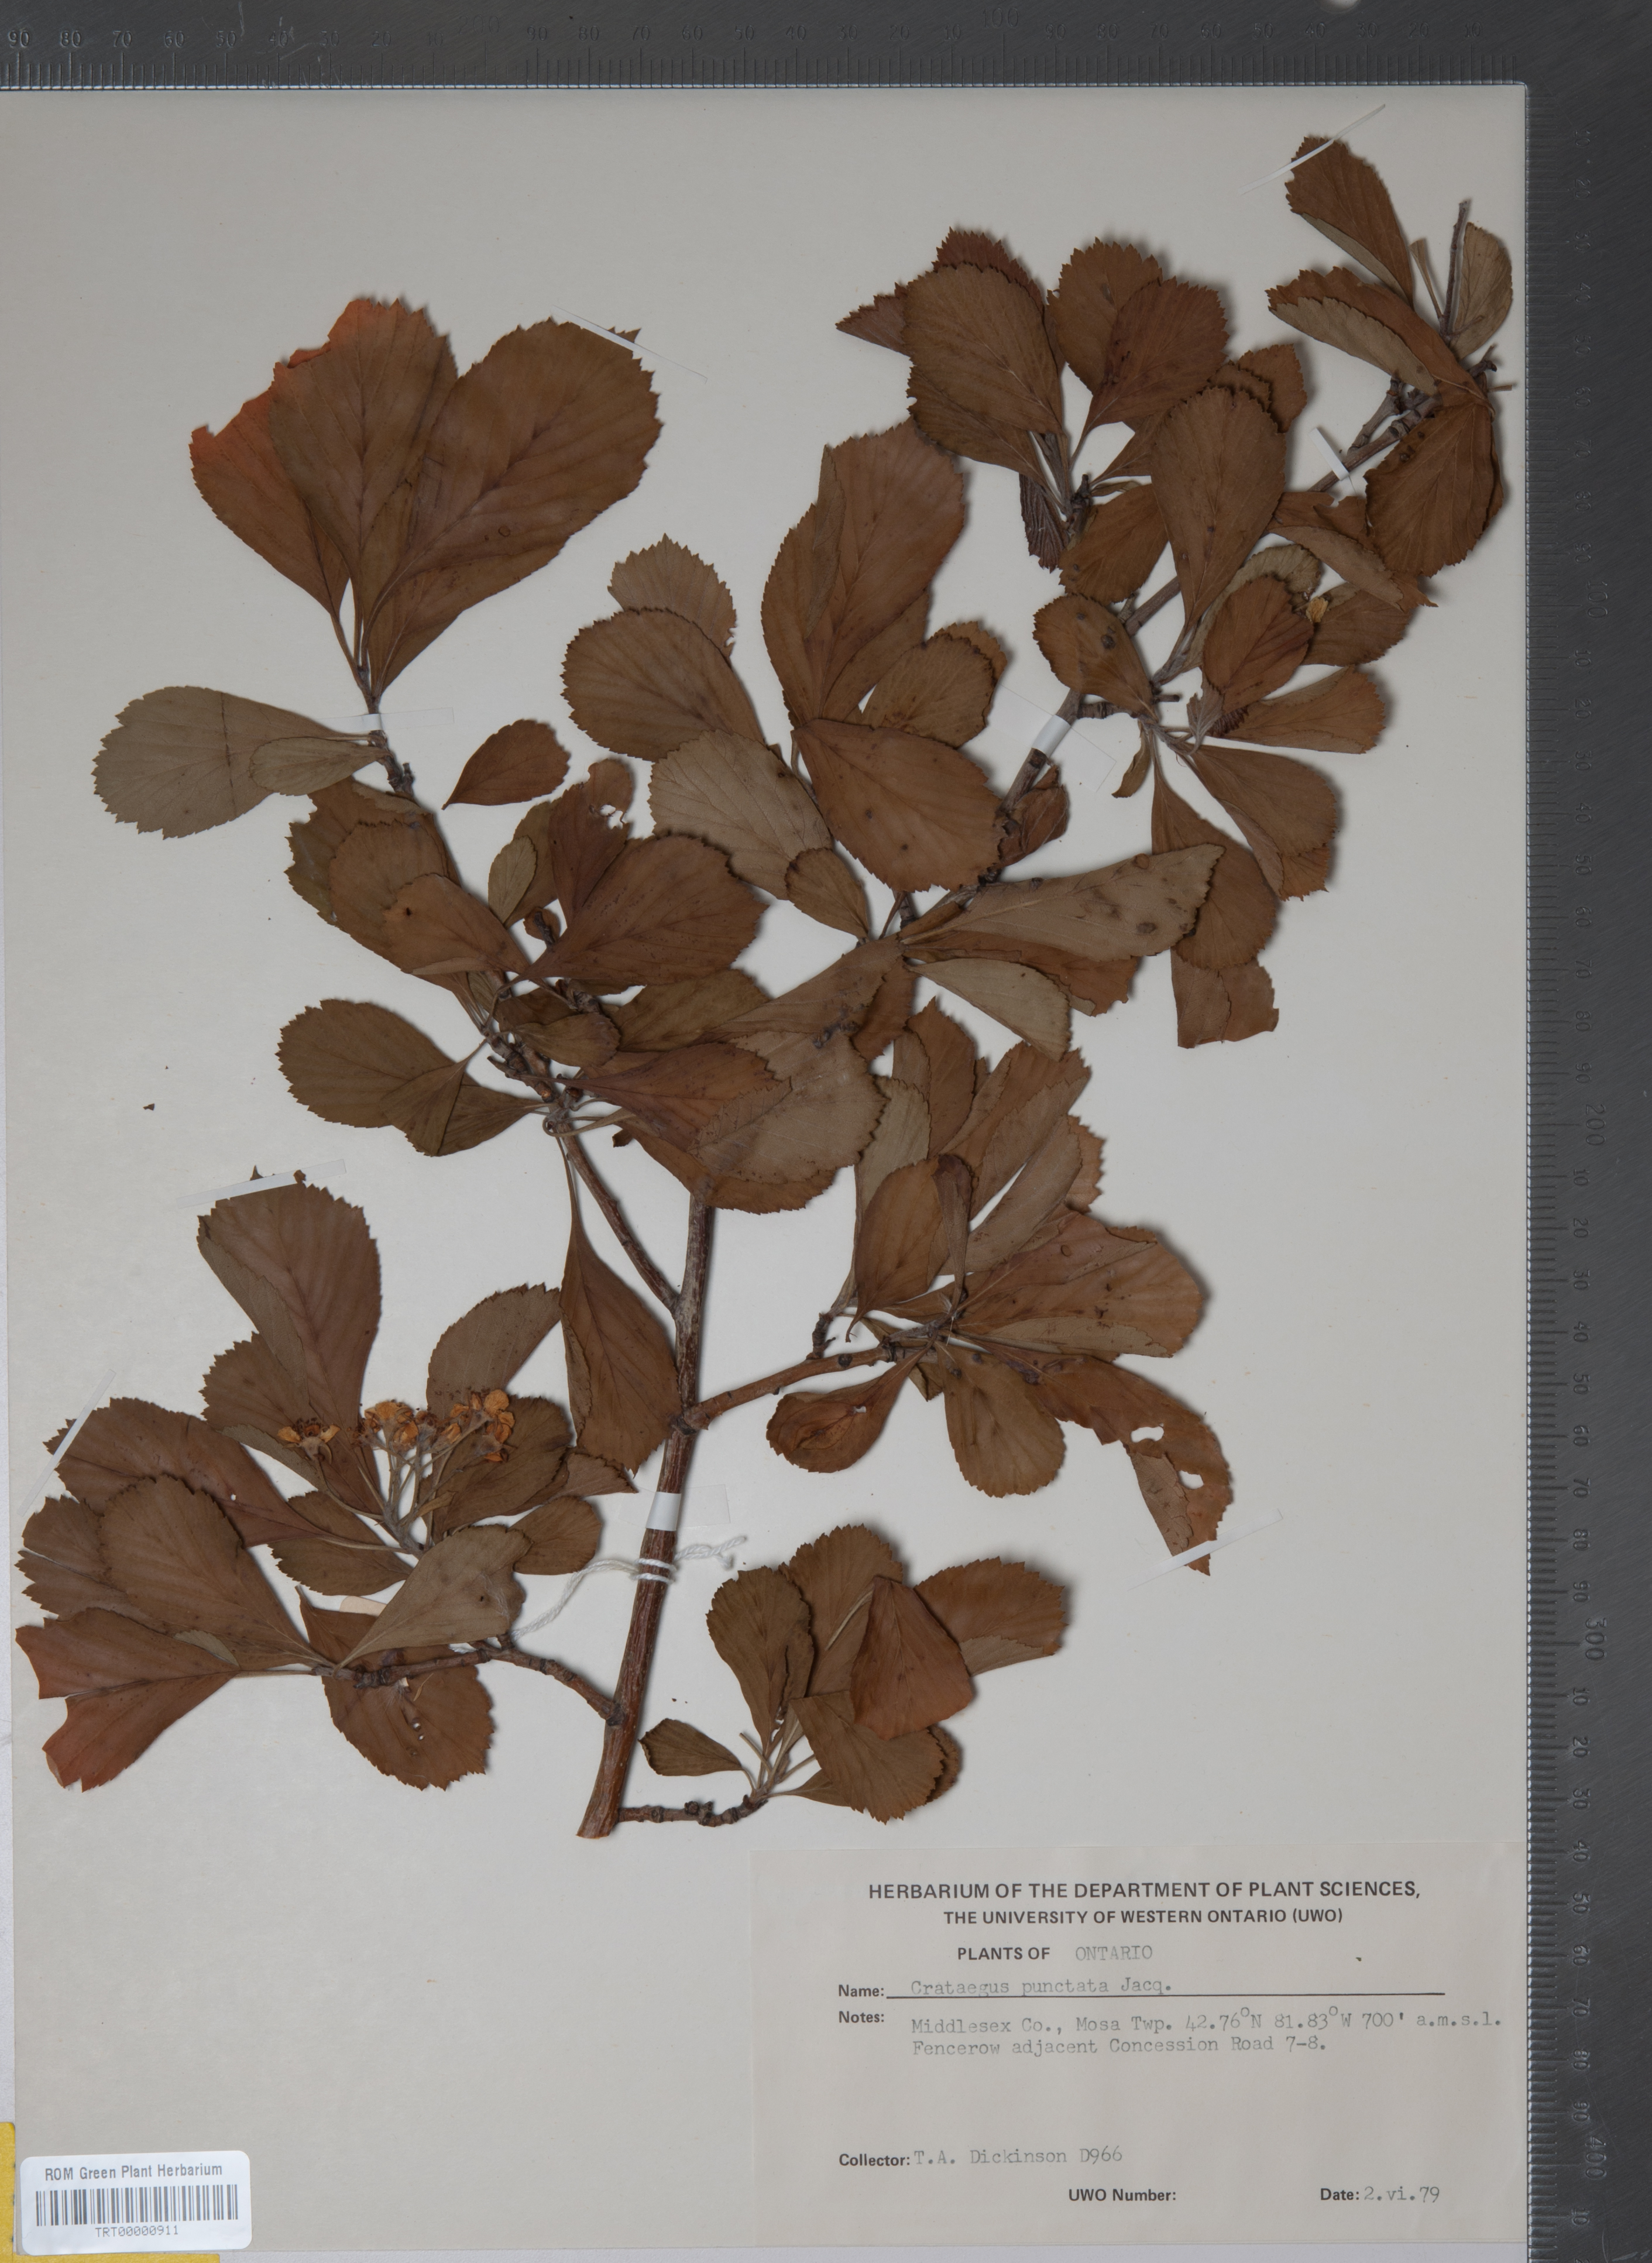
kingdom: Plantae
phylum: Tracheophyta
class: Magnoliopsida
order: Rosales
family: Rosaceae
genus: Crataegus
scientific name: Crataegus punctata
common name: Dotted hawthorn
